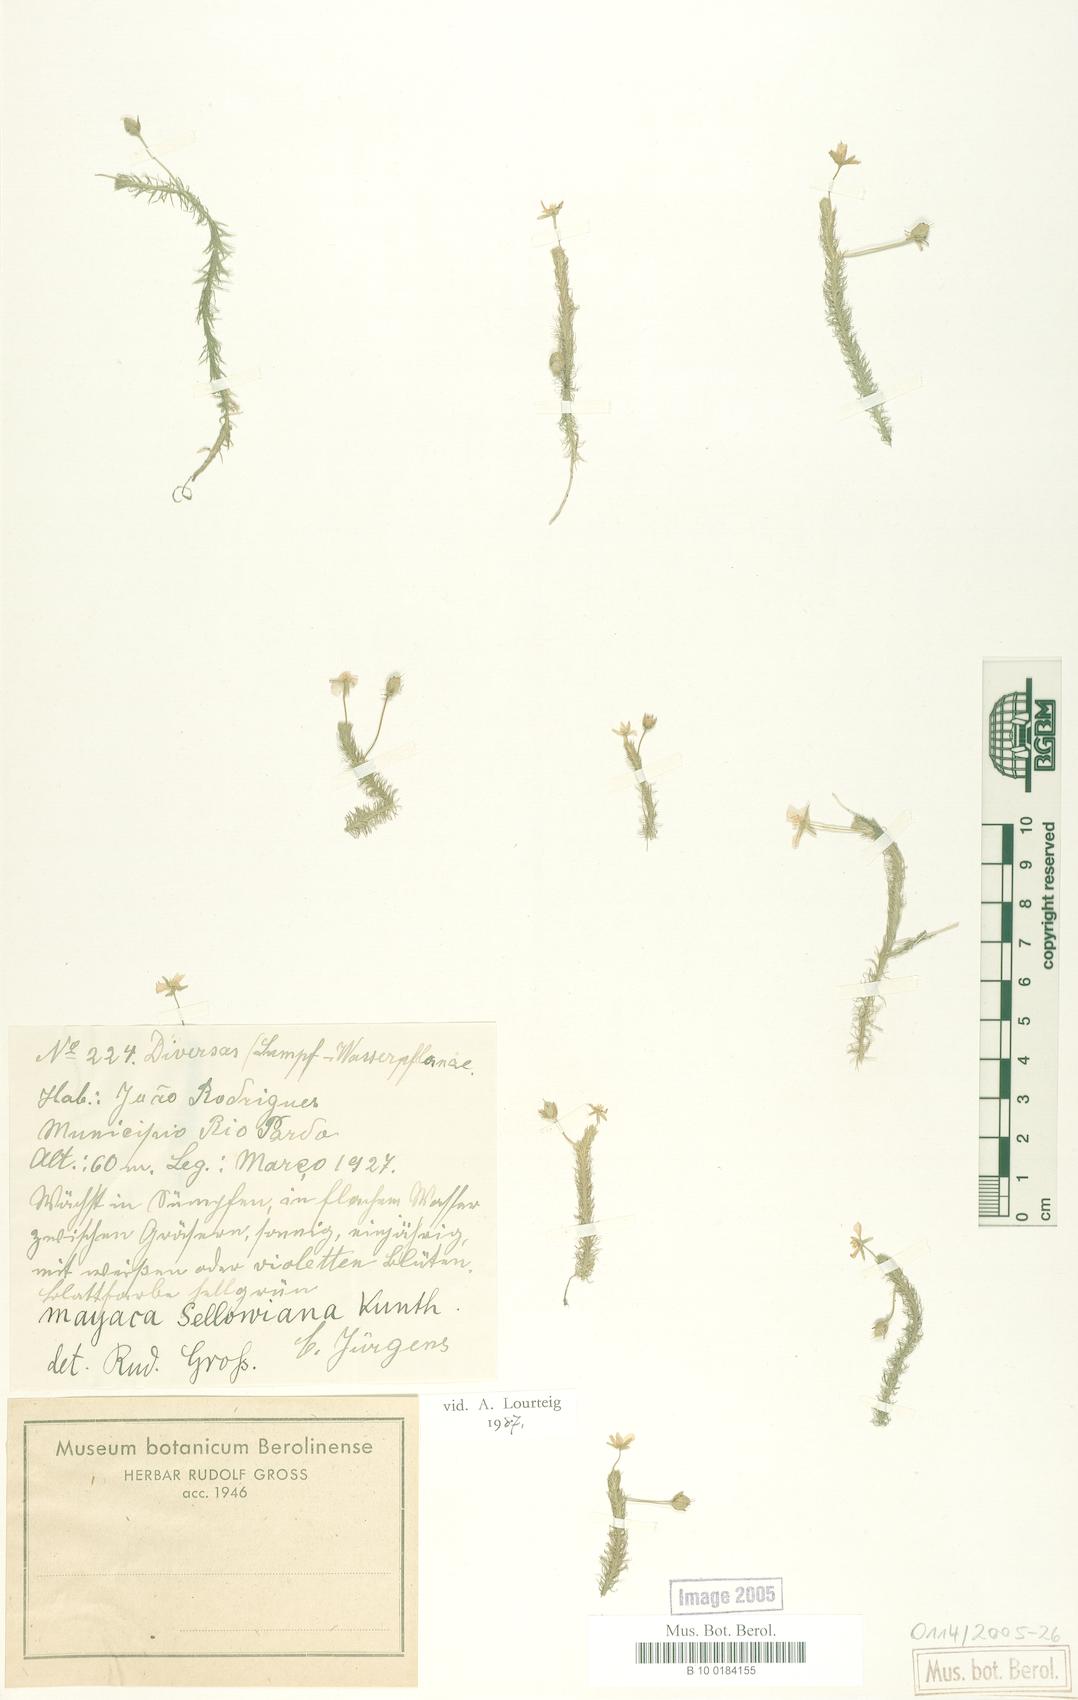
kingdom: Plantae
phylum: Tracheophyta
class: Liliopsida
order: Poales
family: Mayacaceae
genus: Mayaca
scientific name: Mayaca sellowiana
